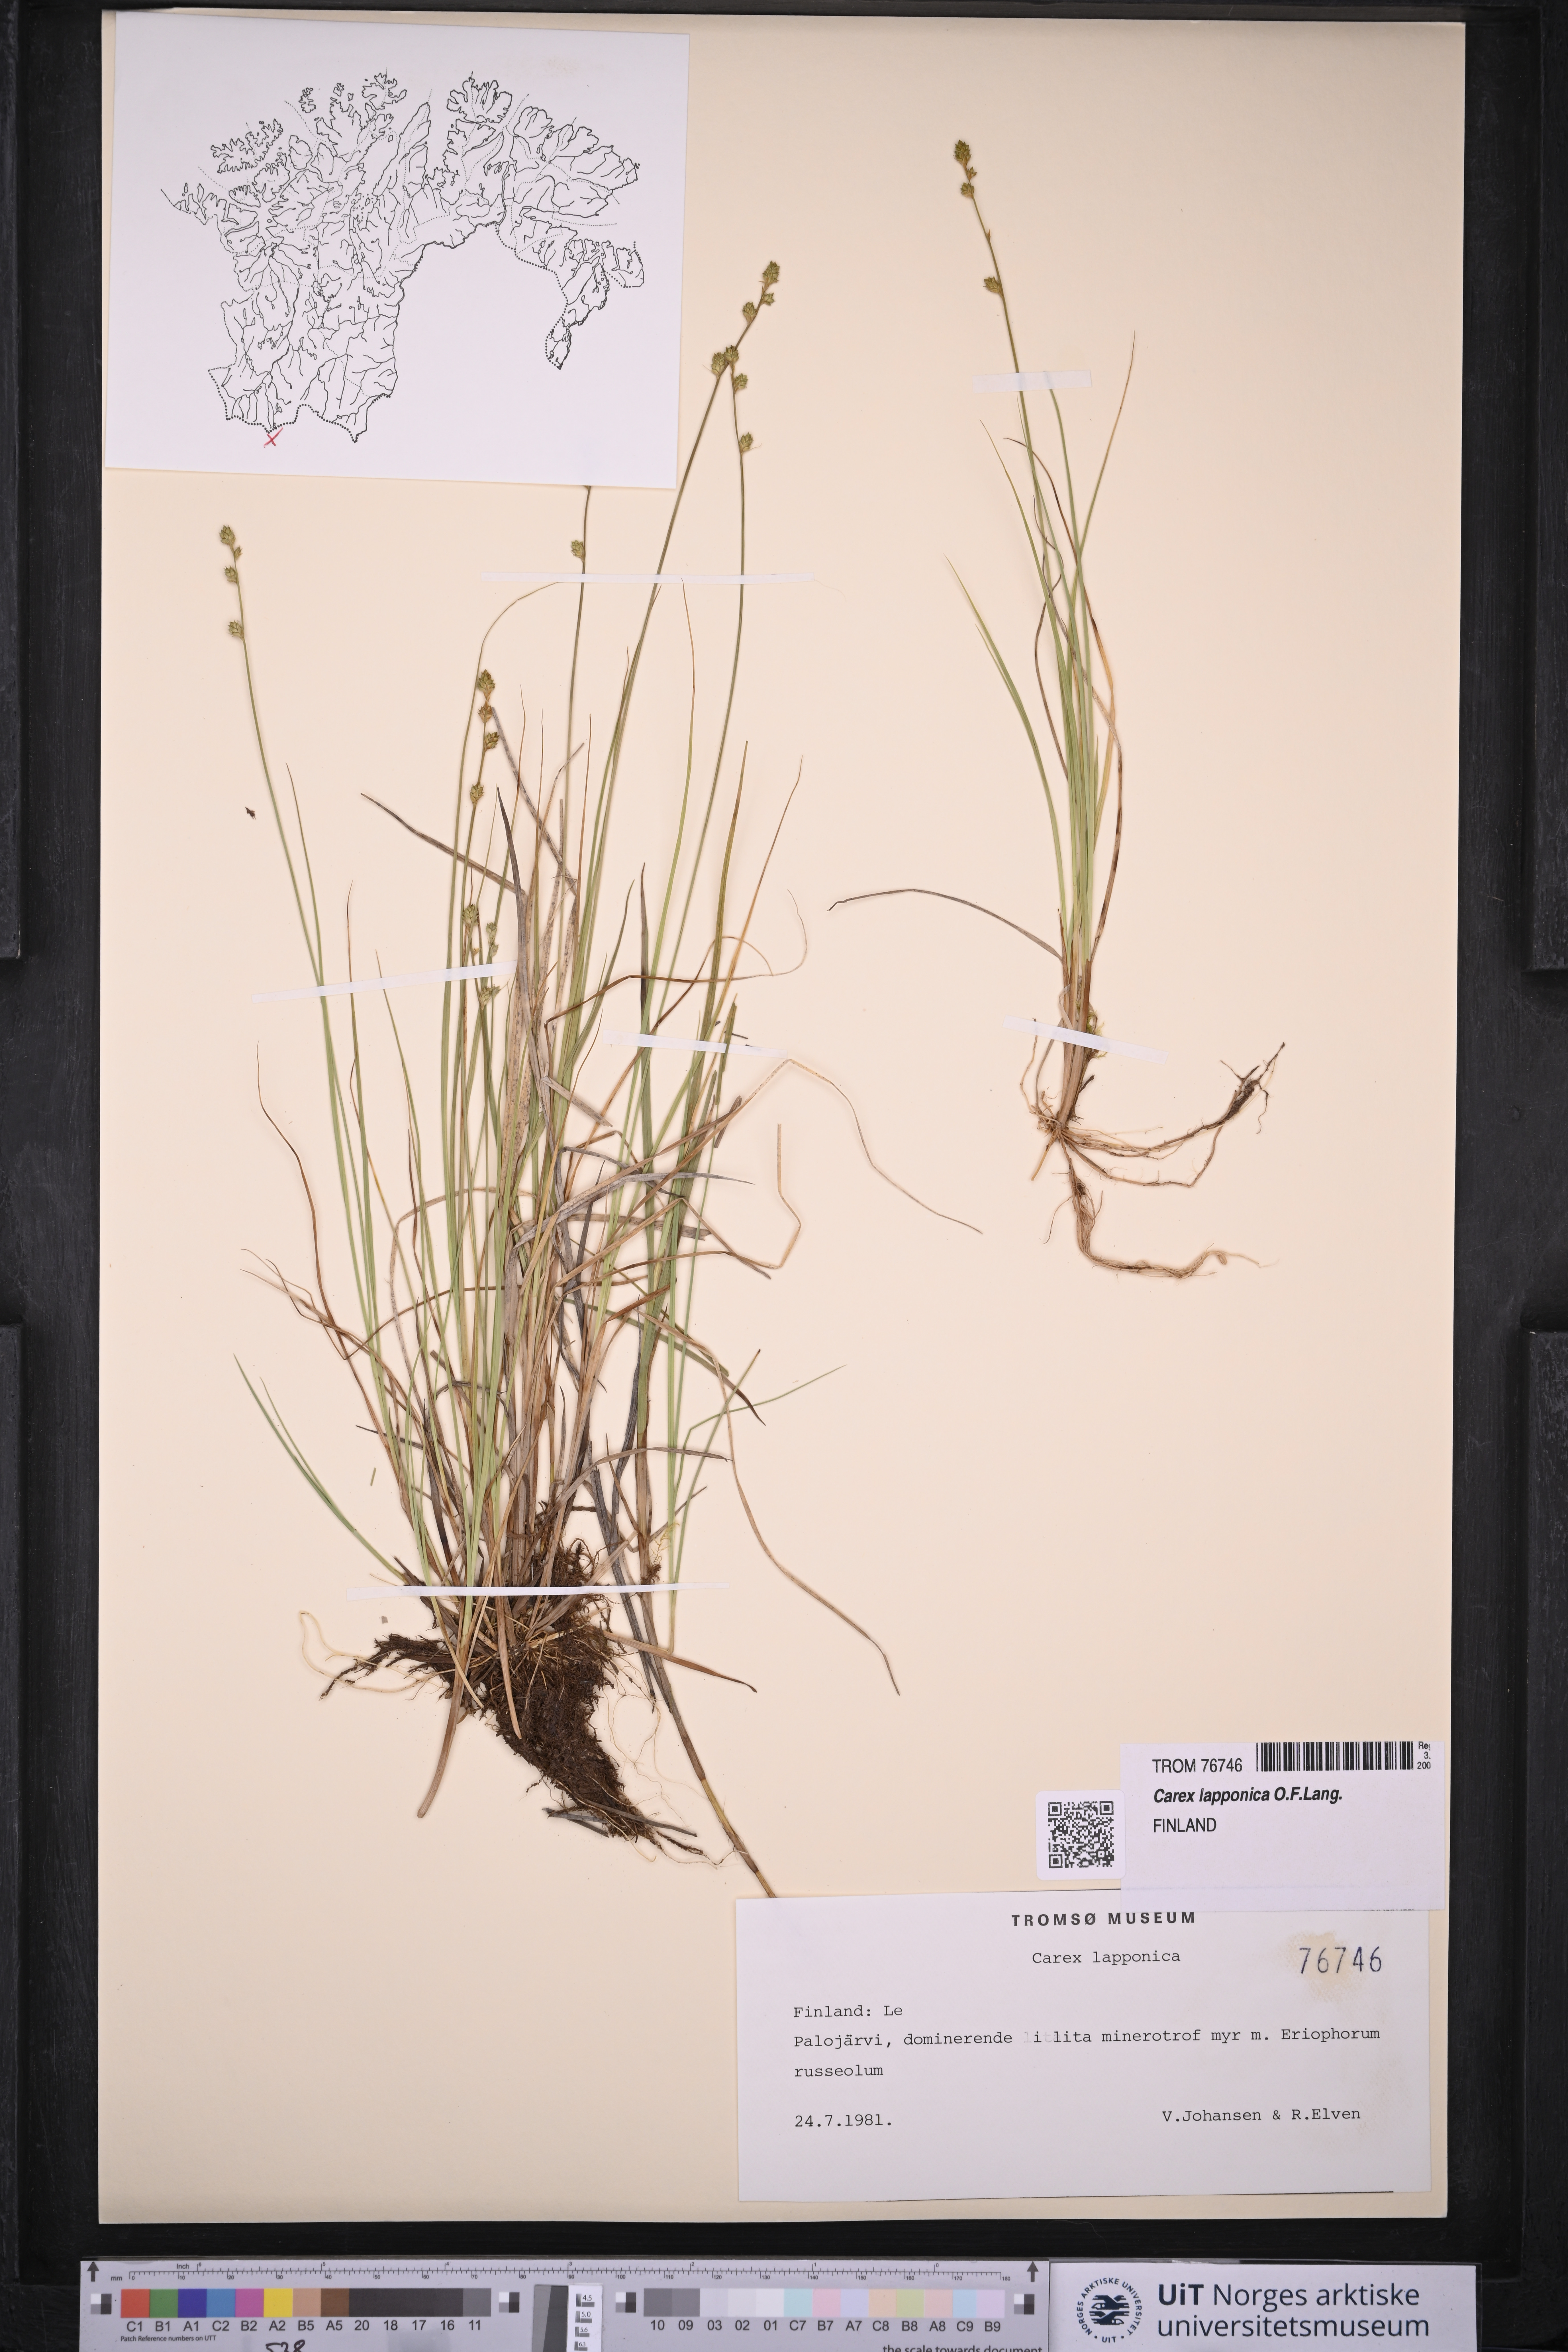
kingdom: Plantae
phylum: Tracheophyta
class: Liliopsida
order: Poales
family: Cyperaceae
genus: Carex
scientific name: Carex lapponica
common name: Lapland sedge
